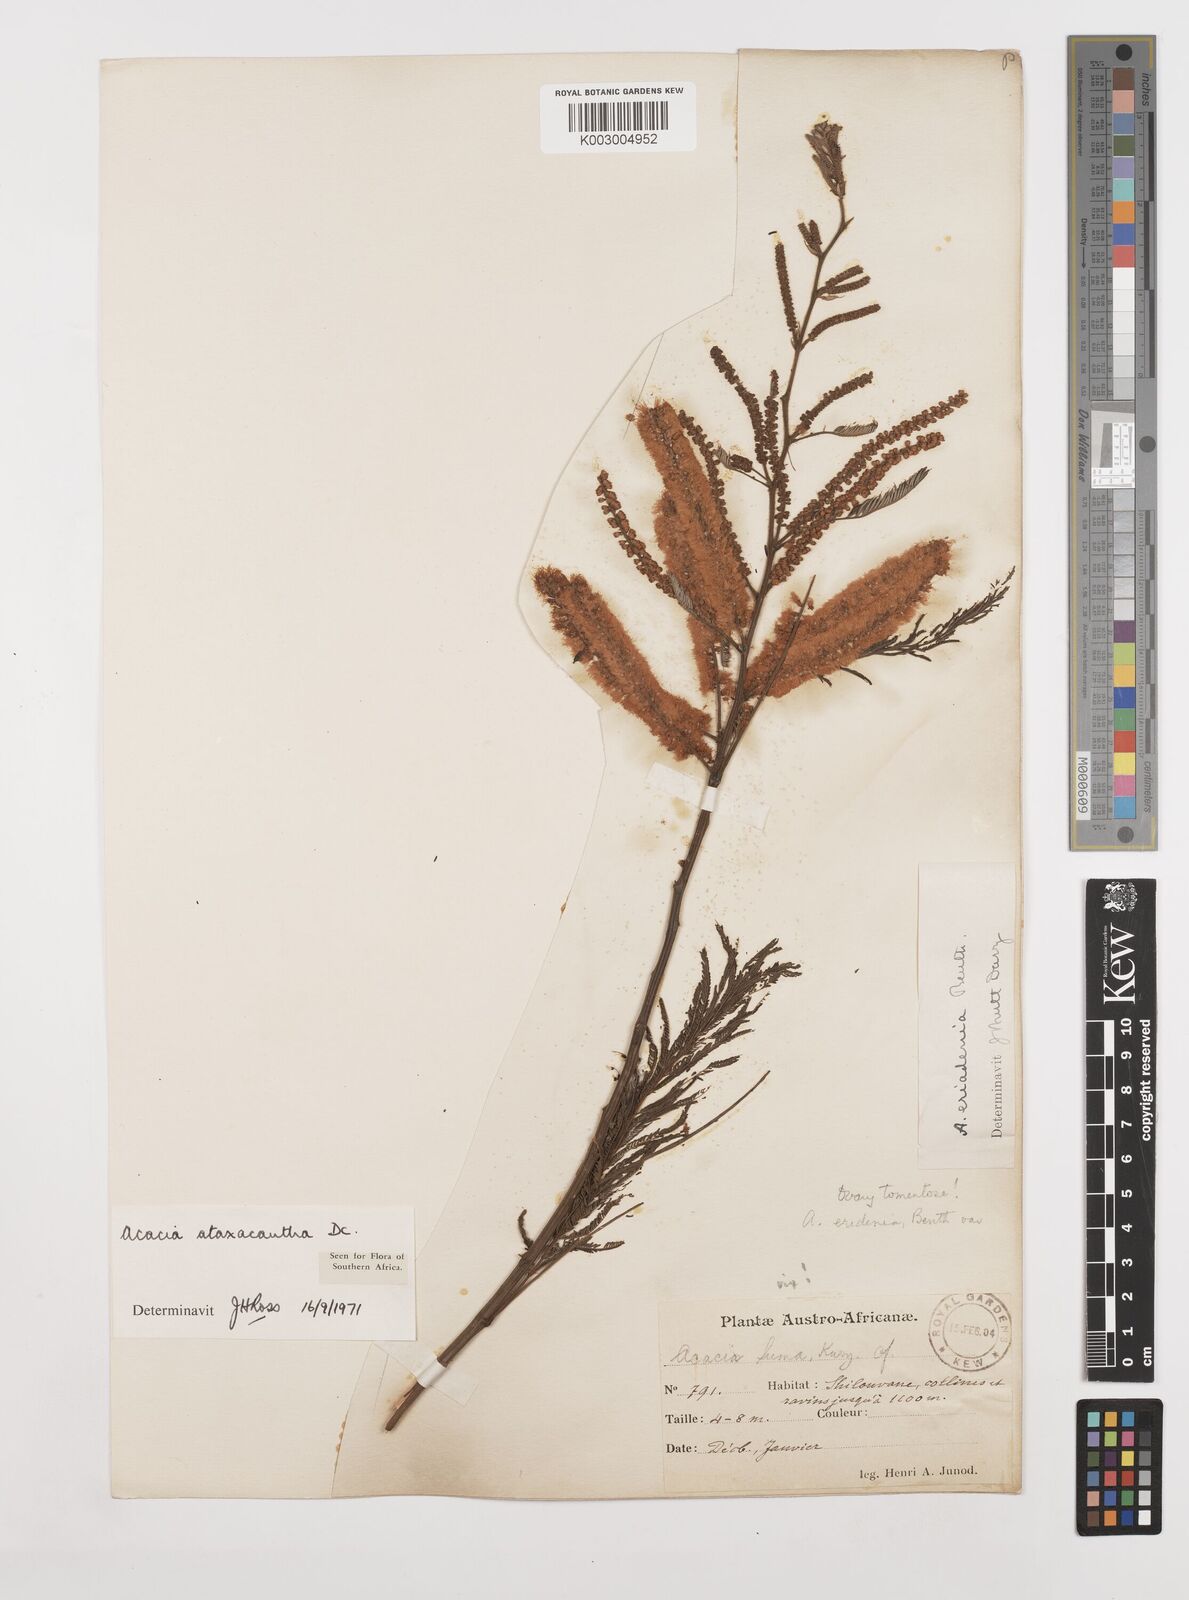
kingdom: Plantae
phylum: Tracheophyta
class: Magnoliopsida
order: Fabales
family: Fabaceae
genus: Senegalia
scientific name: Senegalia ataxacantha
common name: Flame acacia
